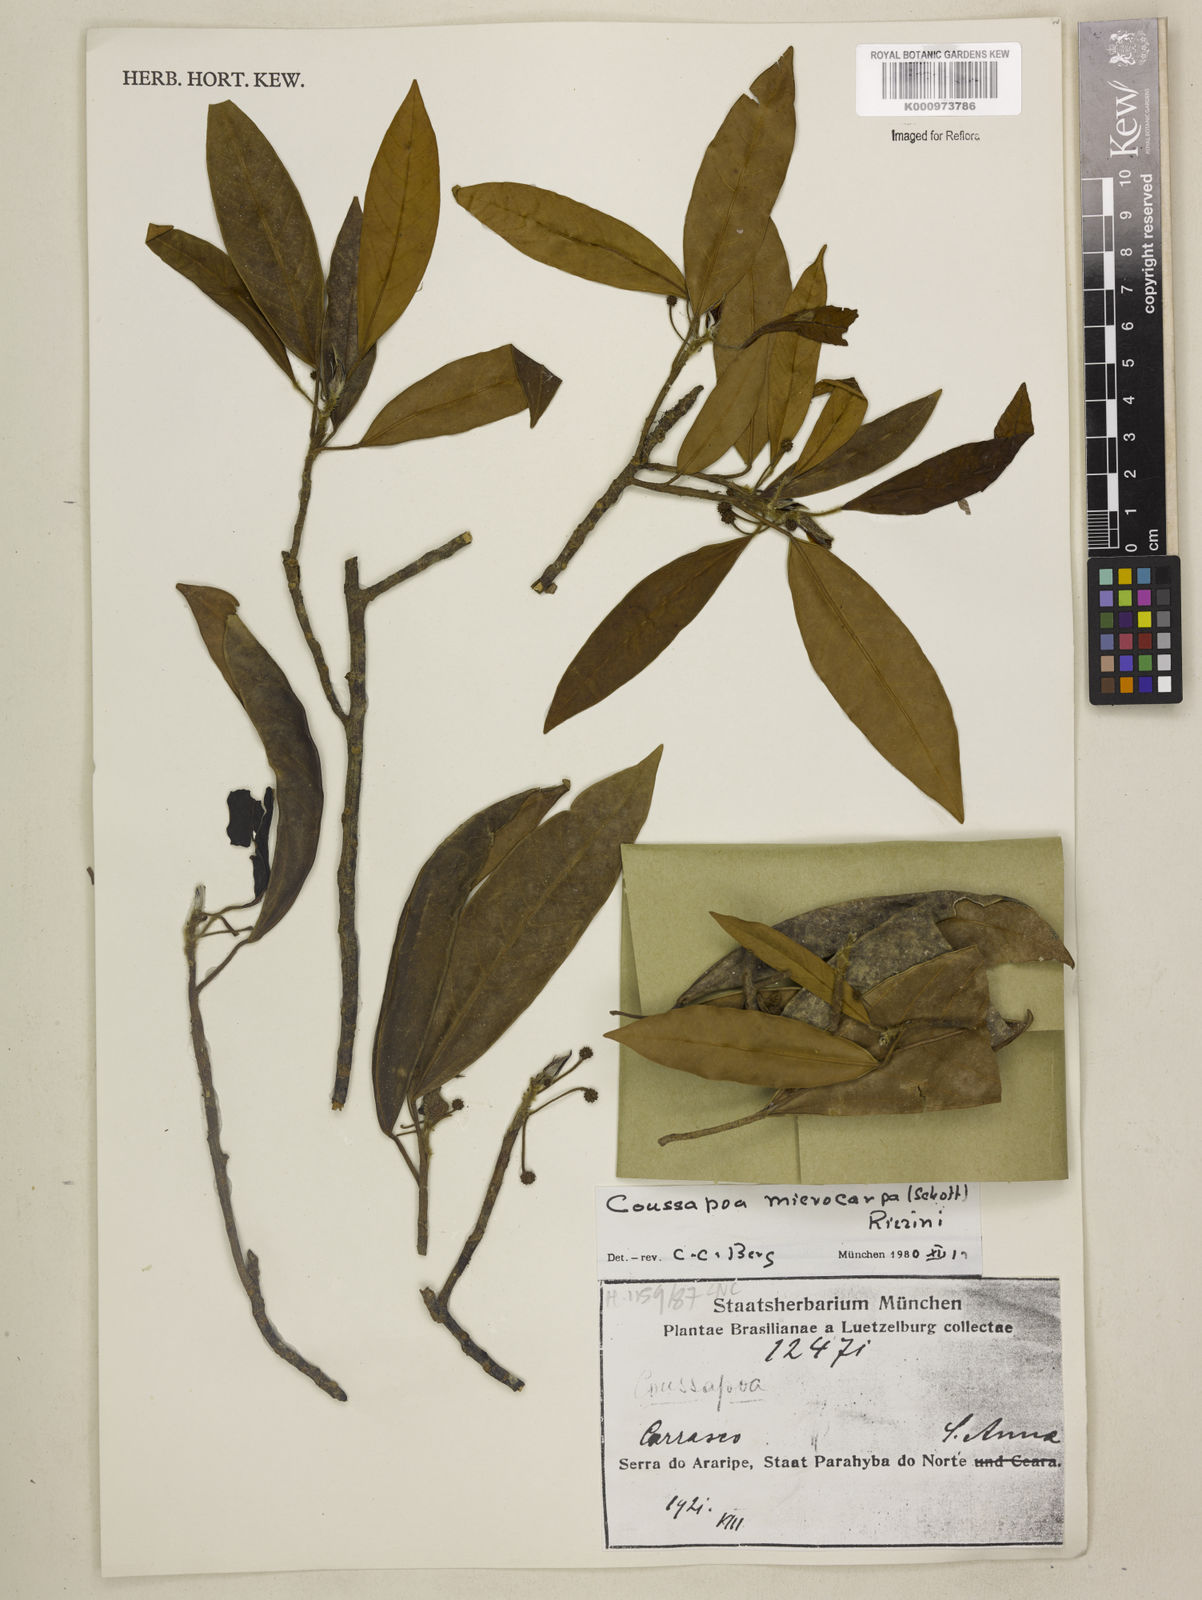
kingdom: Plantae
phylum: Tracheophyta
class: Magnoliopsida
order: Rosales
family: Urticaceae
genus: Coussapoa
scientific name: Coussapoa microcarpa
